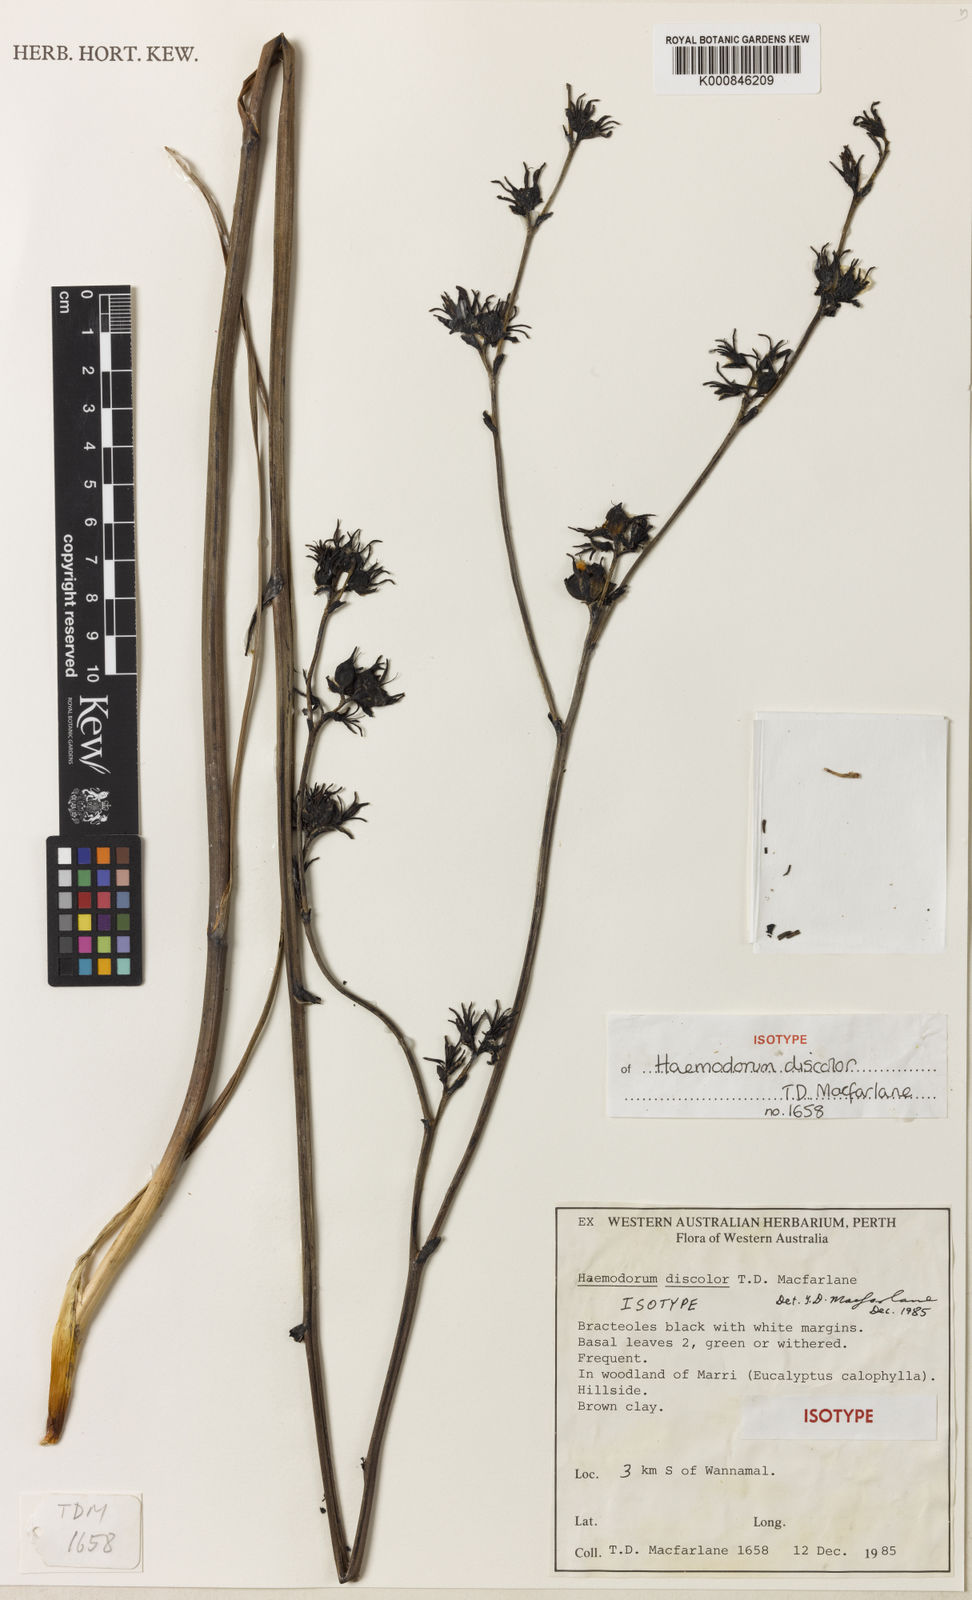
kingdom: Plantae
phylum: Tracheophyta
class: Liliopsida
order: Commelinales
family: Haemodoraceae
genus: Haemodorum
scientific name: Haemodorum discolor
